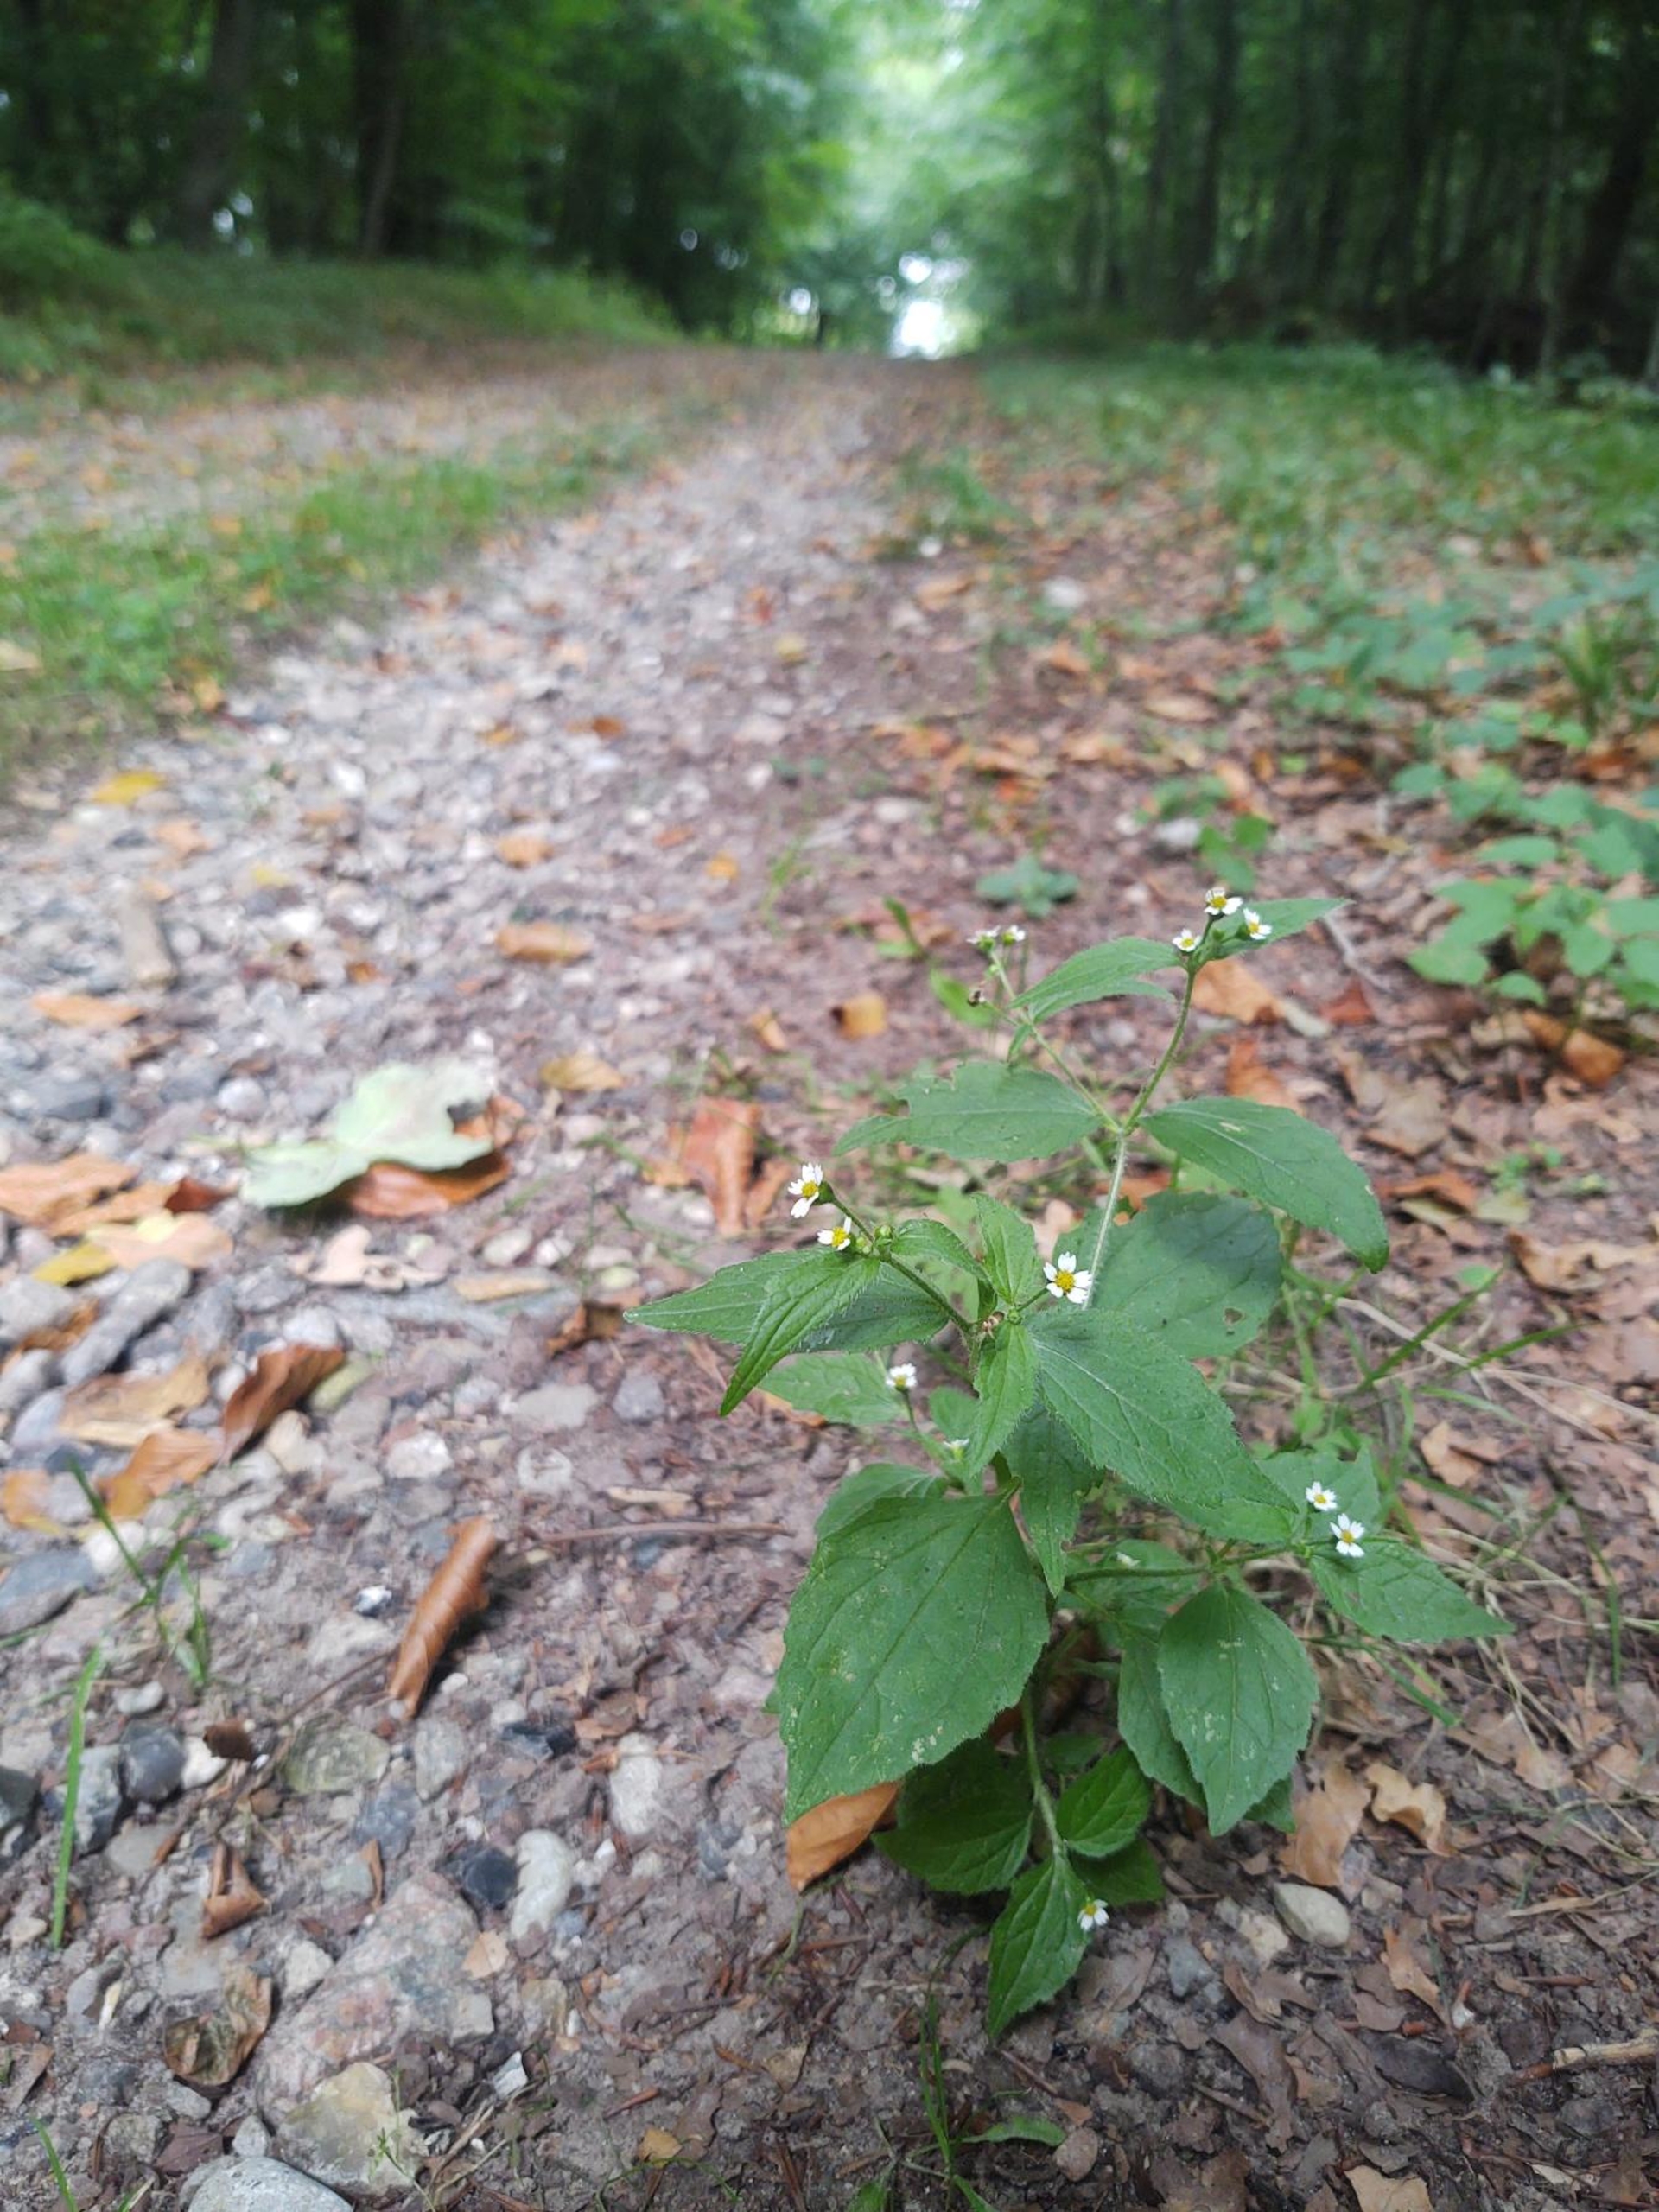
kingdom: Plantae
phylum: Tracheophyta
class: Magnoliopsida
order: Asterales
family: Asteraceae
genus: Galinsoga
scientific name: Galinsoga quadriradiata
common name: Kirtel-kortstråle
